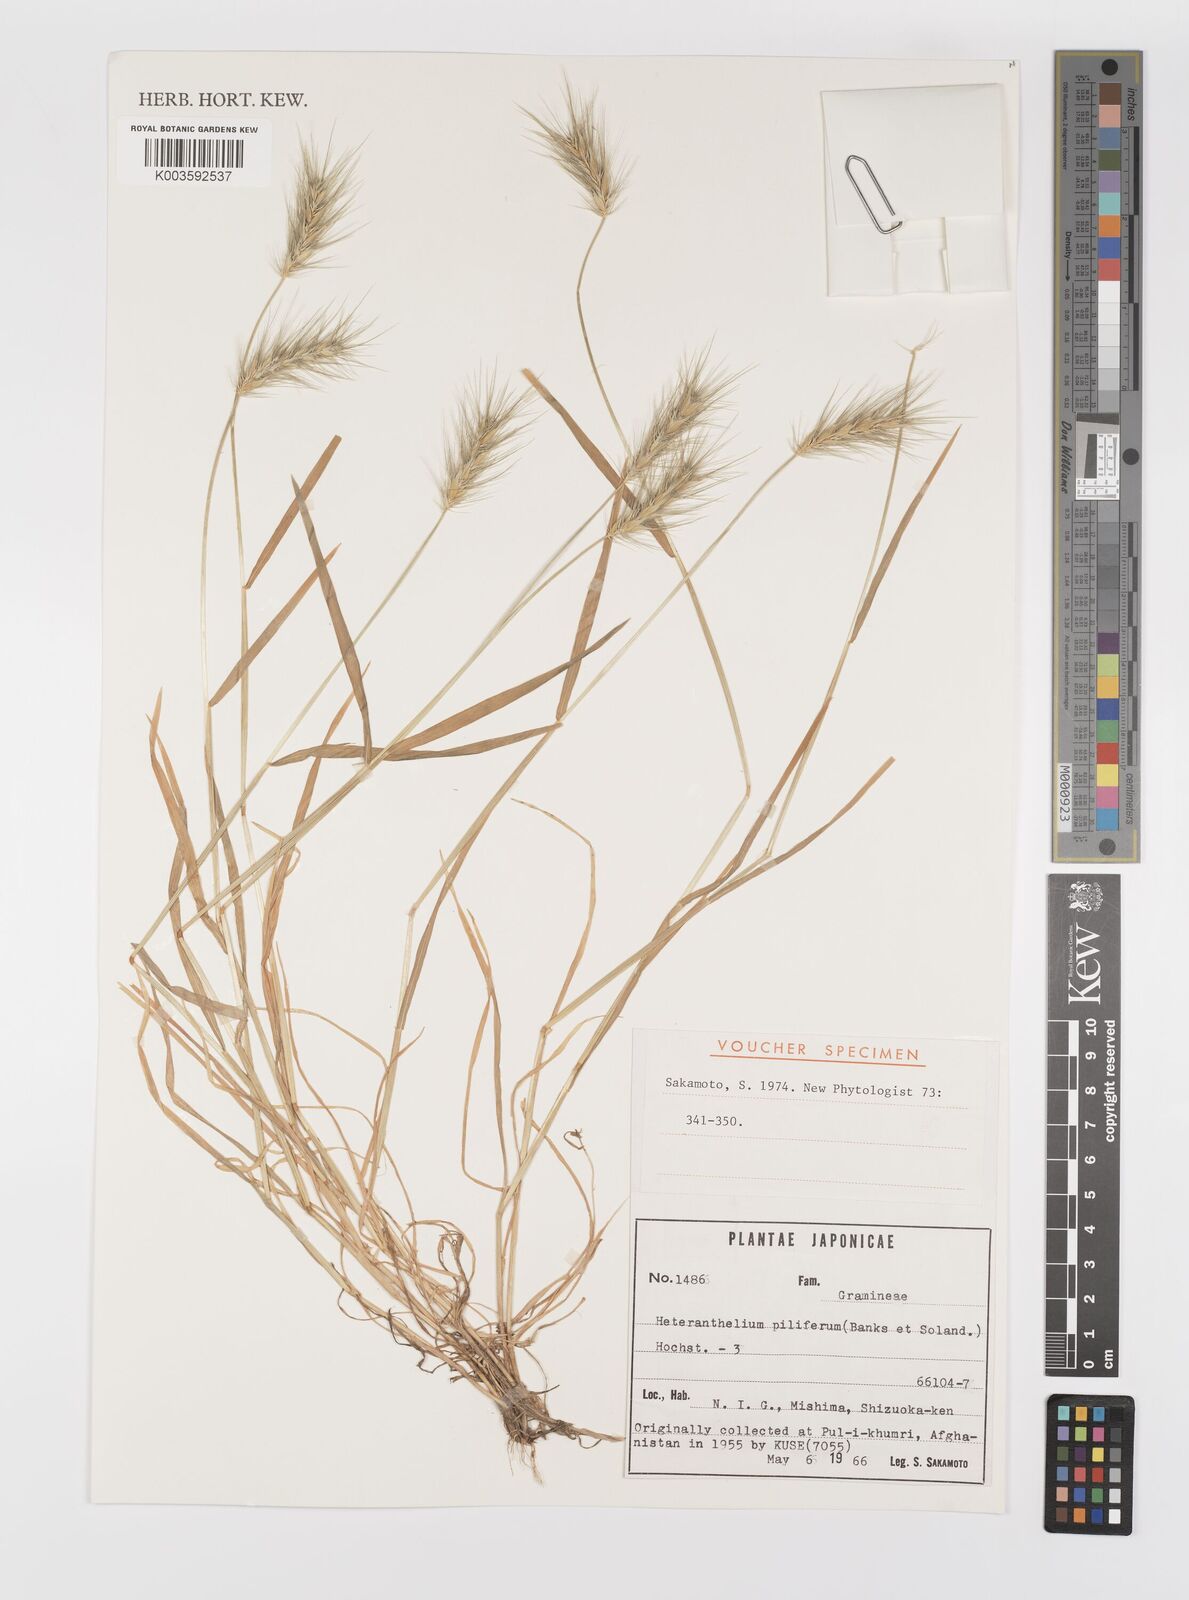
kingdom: Plantae
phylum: Tracheophyta
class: Liliopsida
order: Poales
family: Poaceae
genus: Heteranthelium
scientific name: Heteranthelium piliferum
